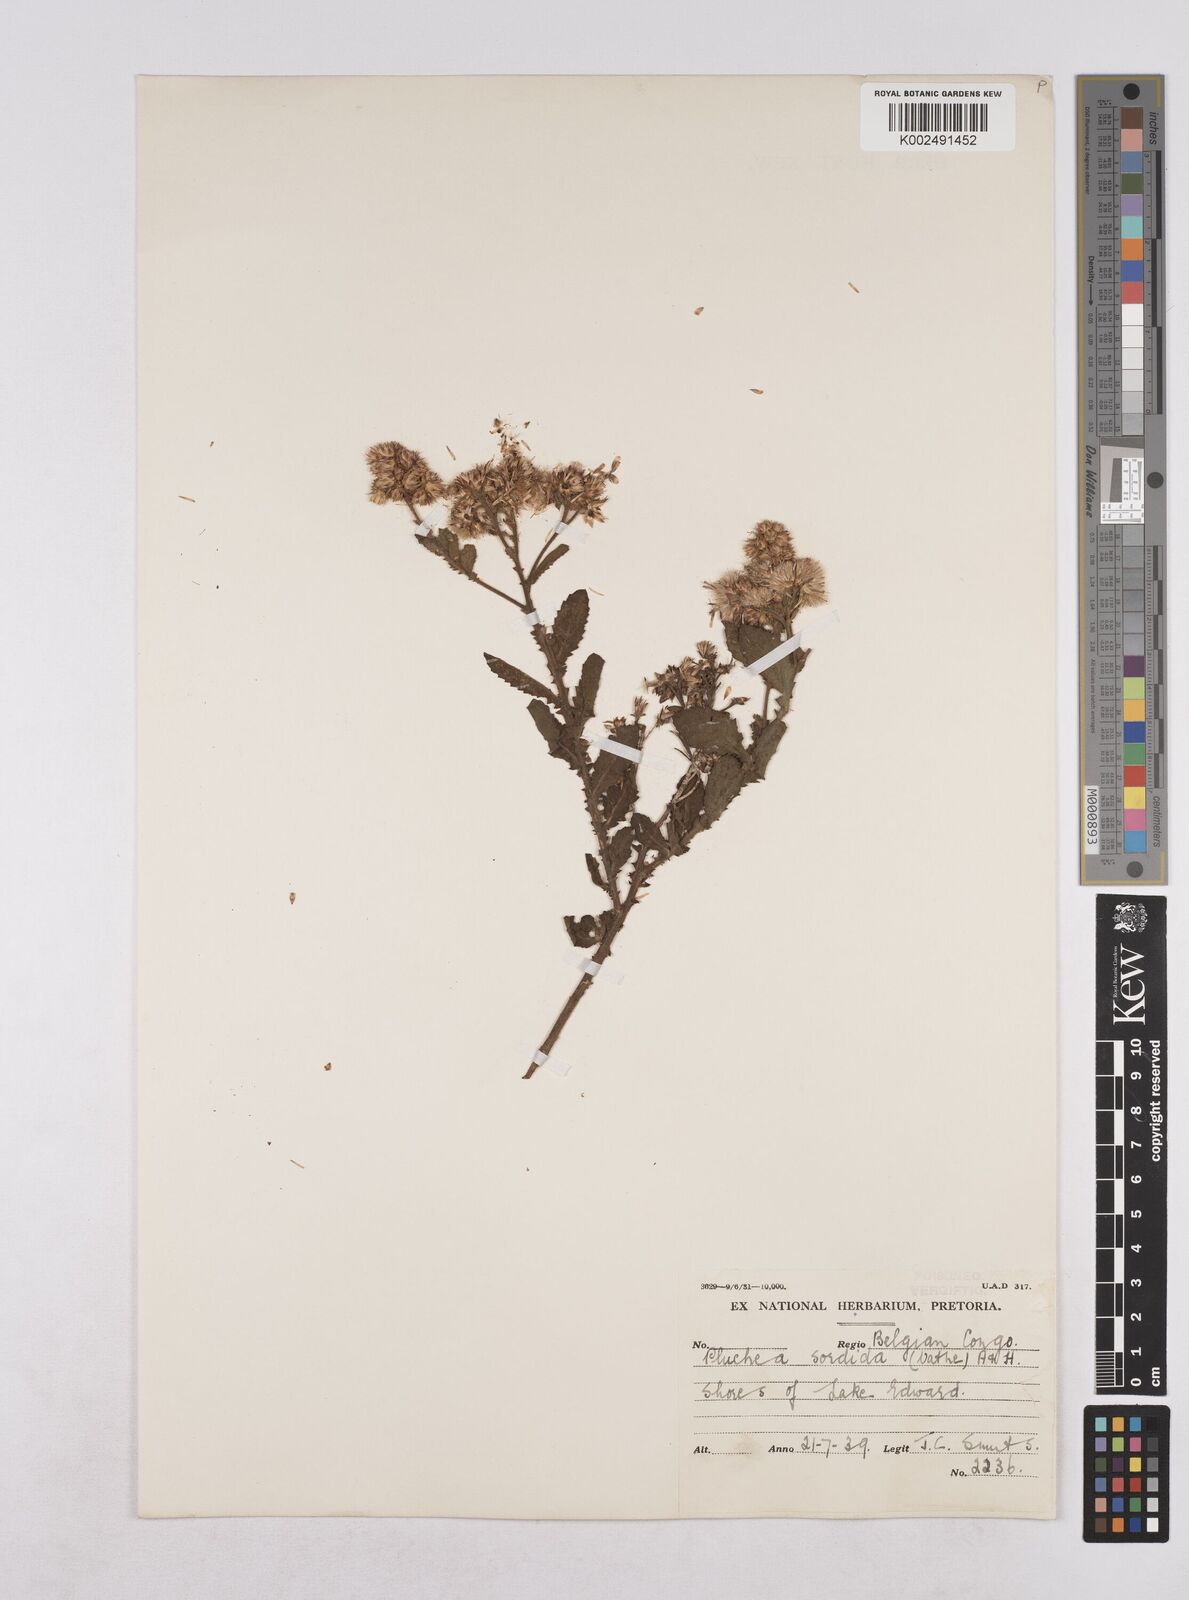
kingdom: Plantae
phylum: Tracheophyta
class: Magnoliopsida
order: Asterales
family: Asteraceae
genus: Pluchea
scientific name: Pluchea sordida
